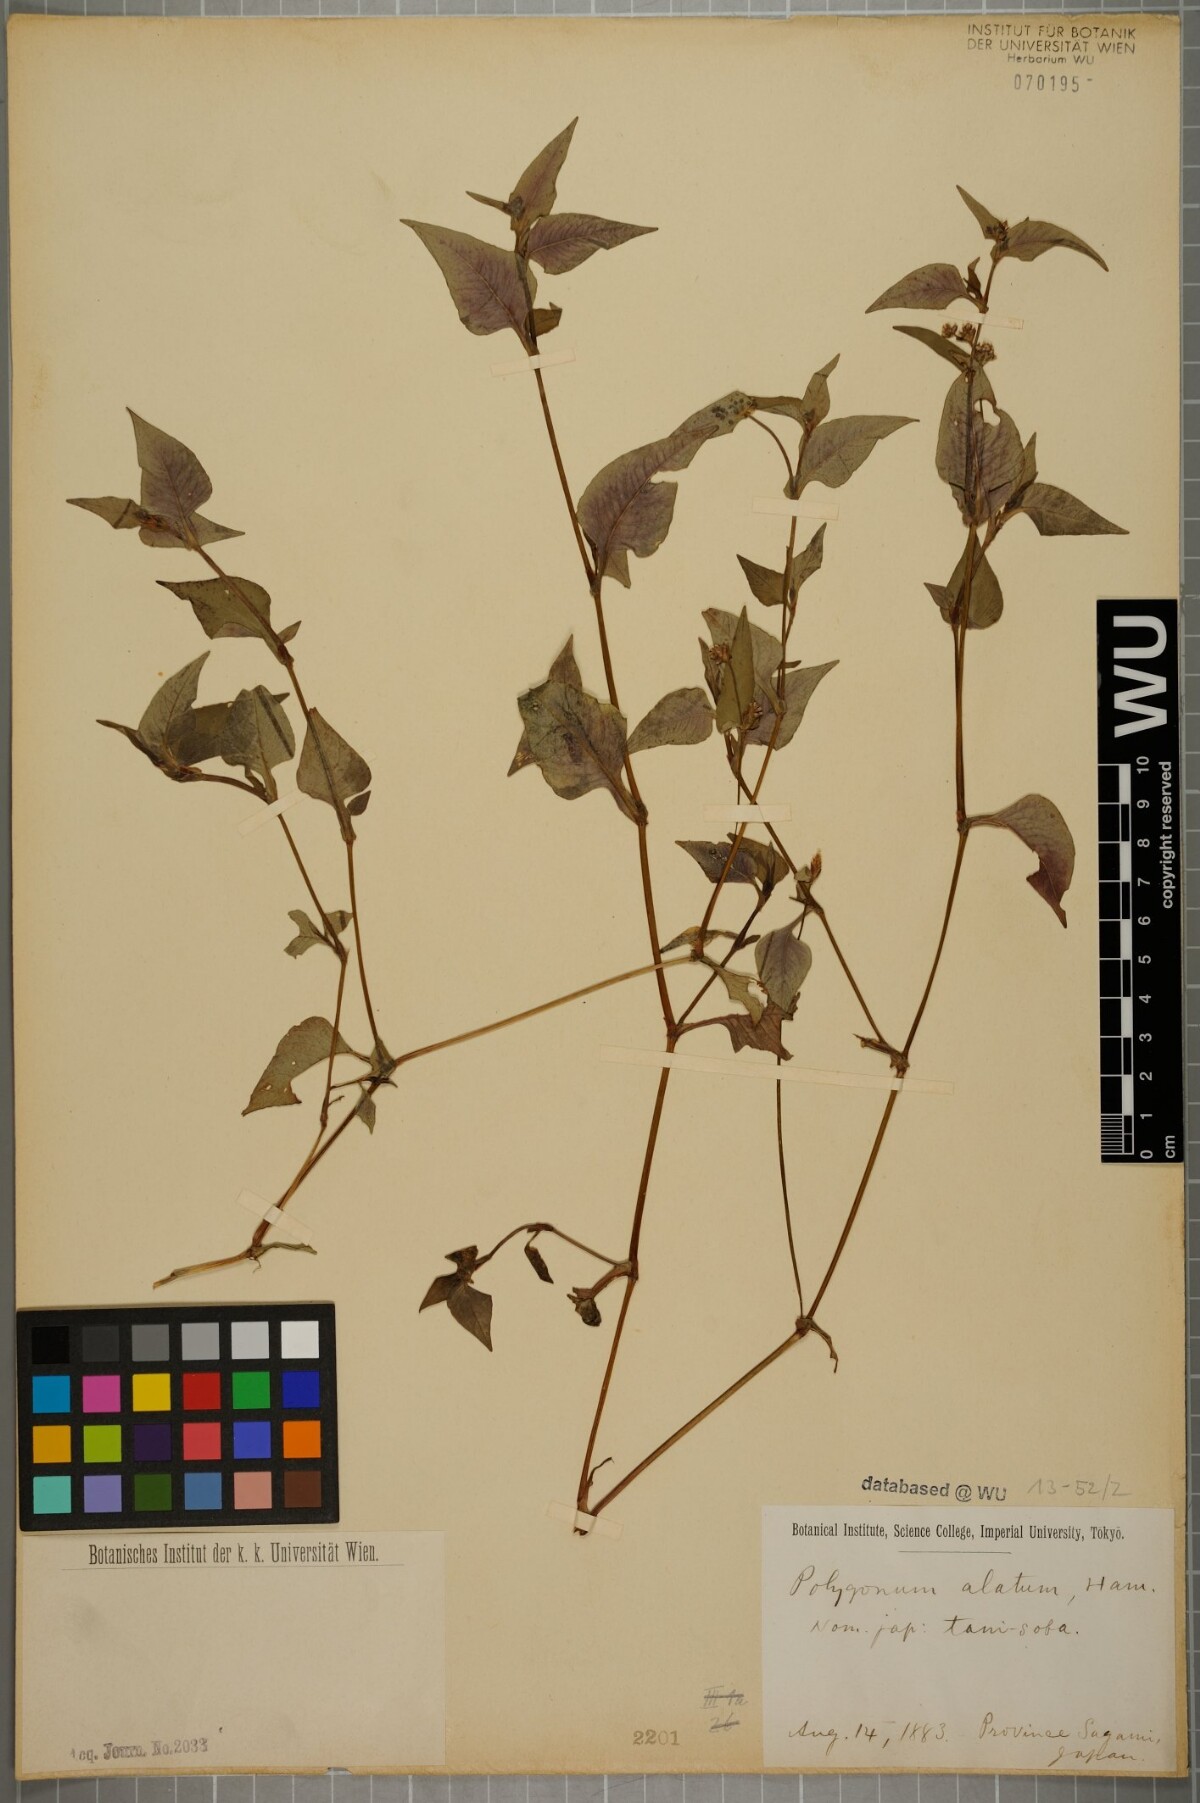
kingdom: Plantae
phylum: Tracheophyta
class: Magnoliopsida
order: Caryophyllales
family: Polygonaceae
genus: Persicaria
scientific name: Persicaria nepalensis
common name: Nepal persicaria
